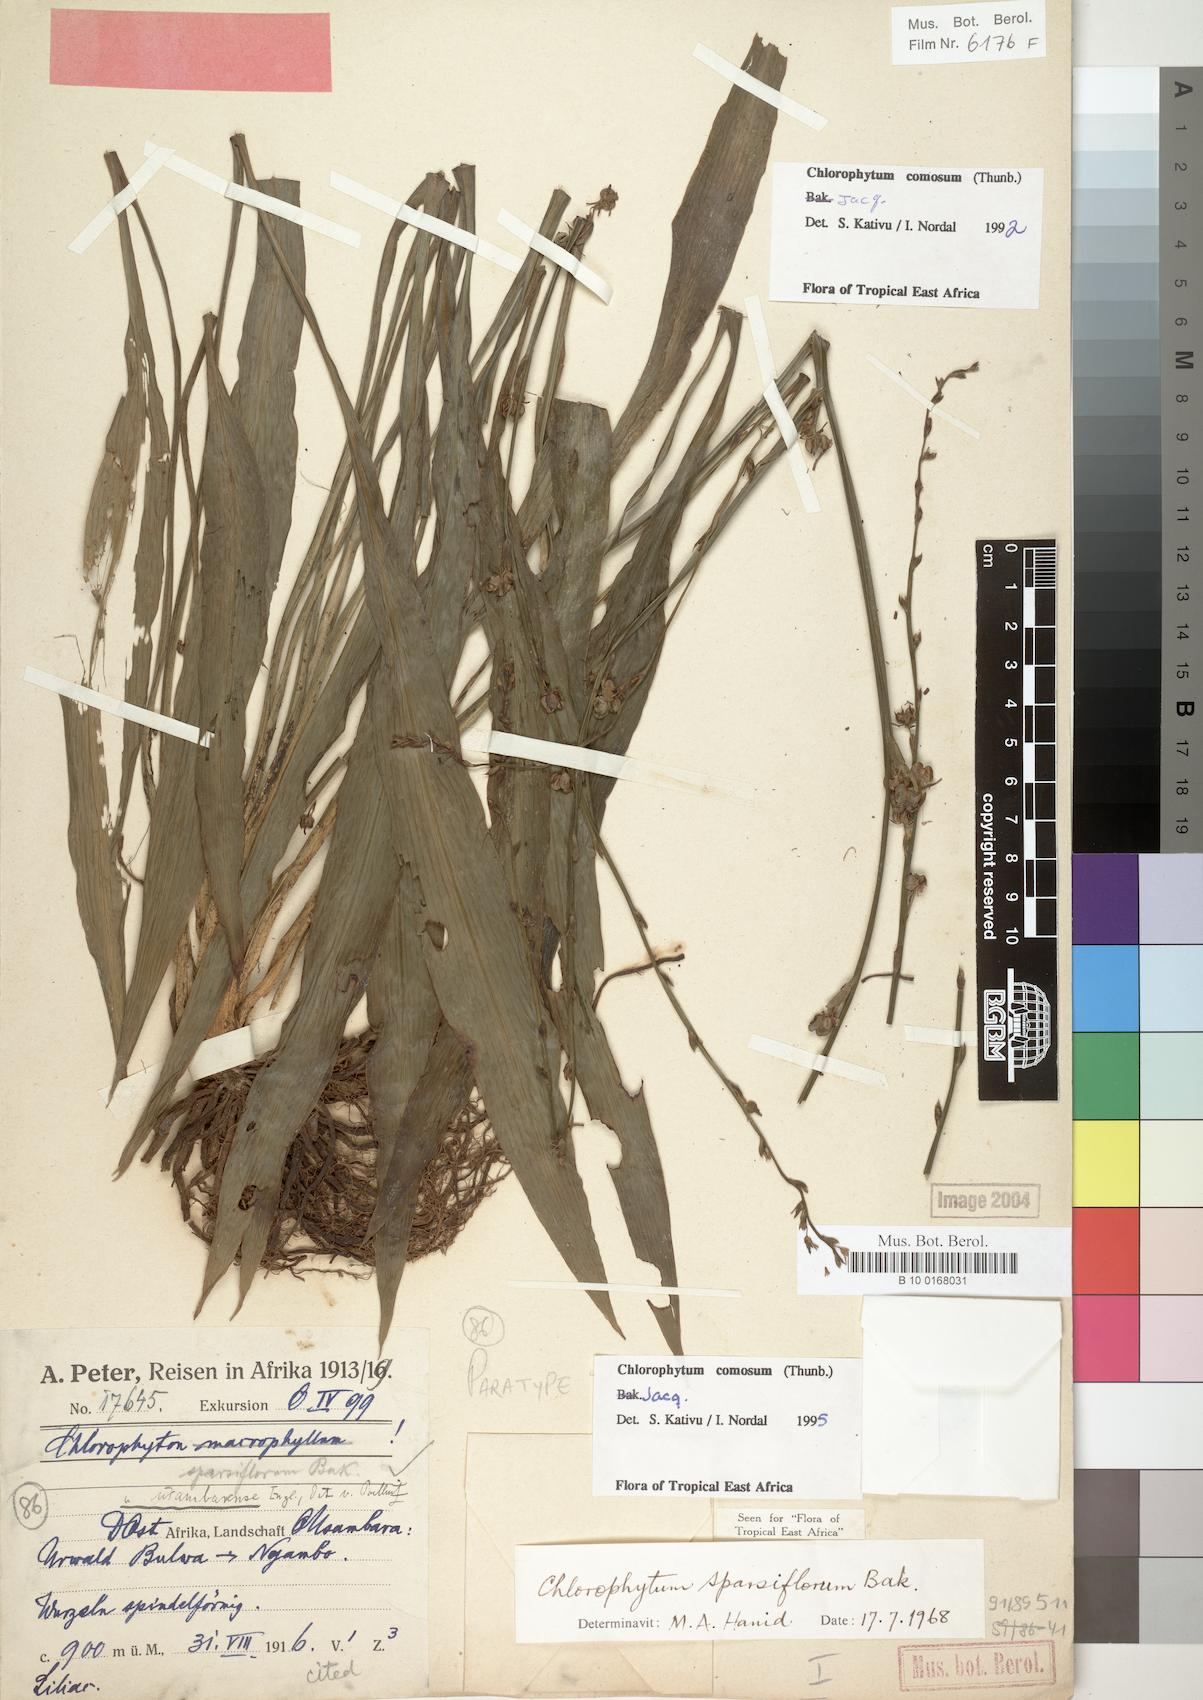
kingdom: Plantae
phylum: Tracheophyta
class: Liliopsida
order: Asparagales
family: Asparagaceae
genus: Chlorophytum
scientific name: Chlorophytum comosum
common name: Spider plant
